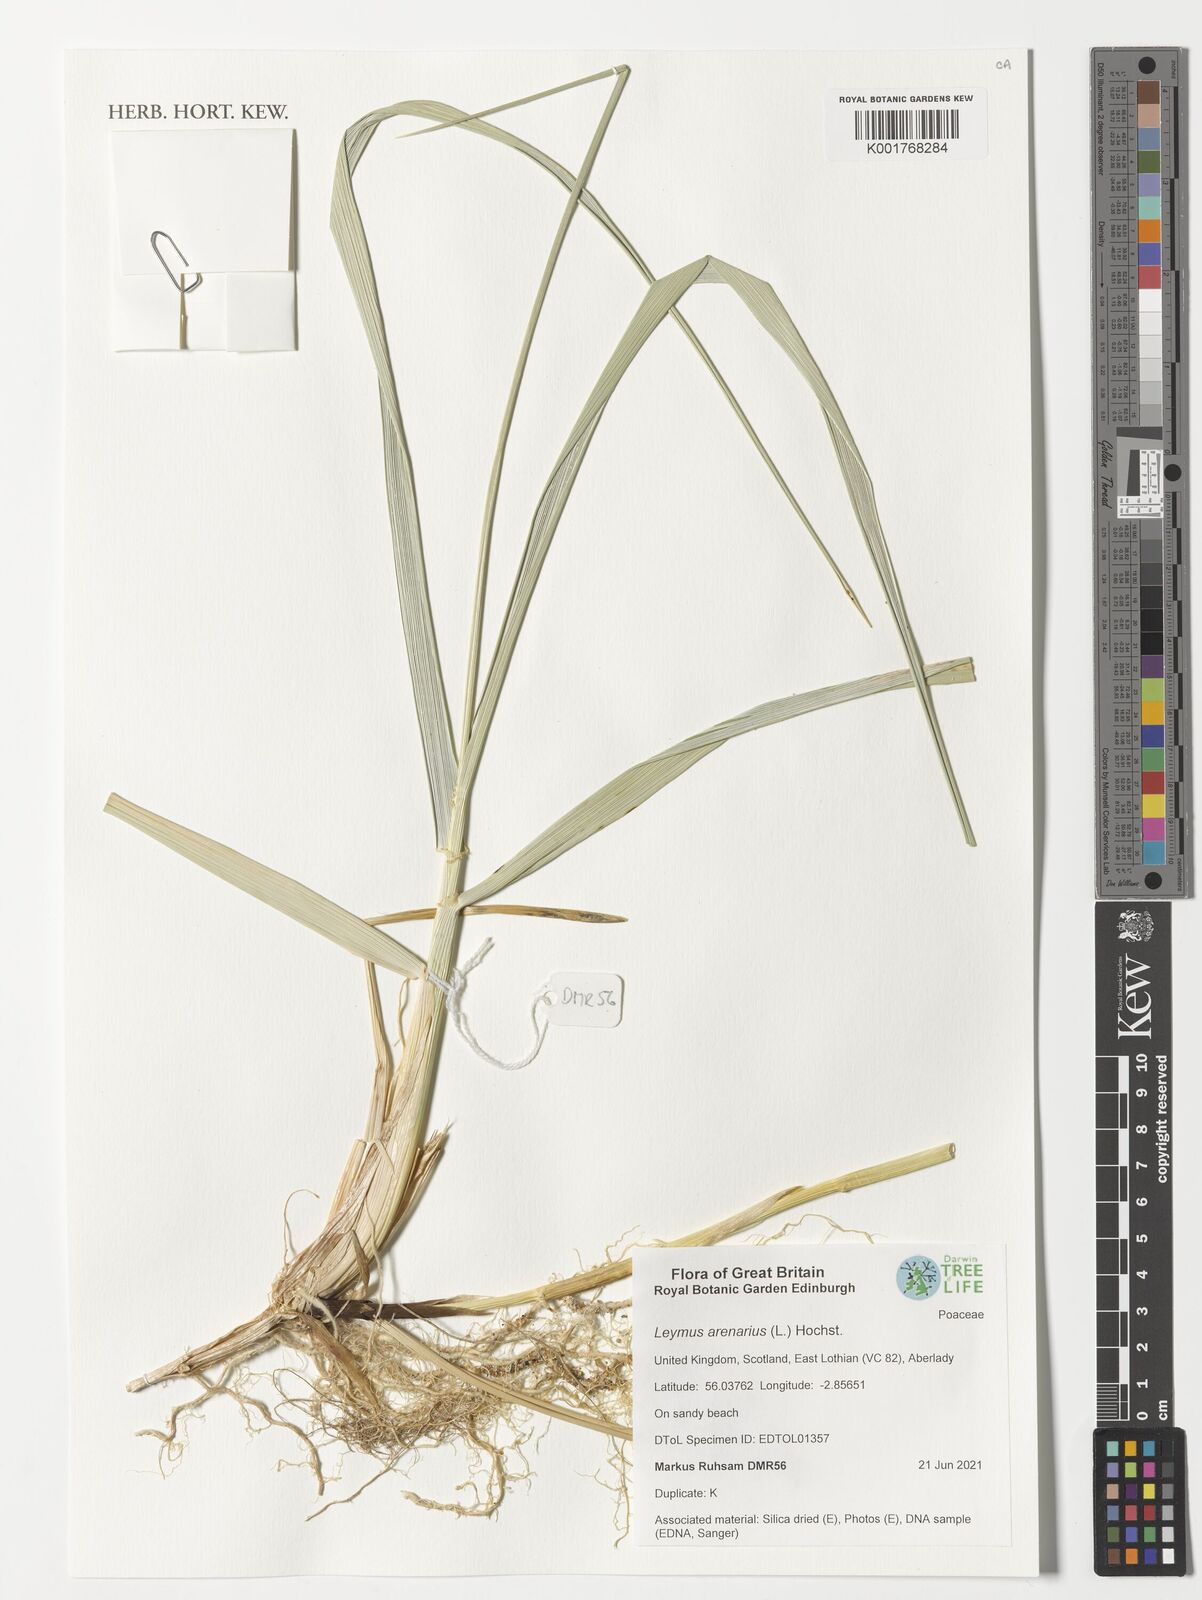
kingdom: Plantae
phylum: Tracheophyta
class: Liliopsida
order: Poales
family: Poaceae
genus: Leymus
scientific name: Leymus arenarius
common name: Lyme-grass
